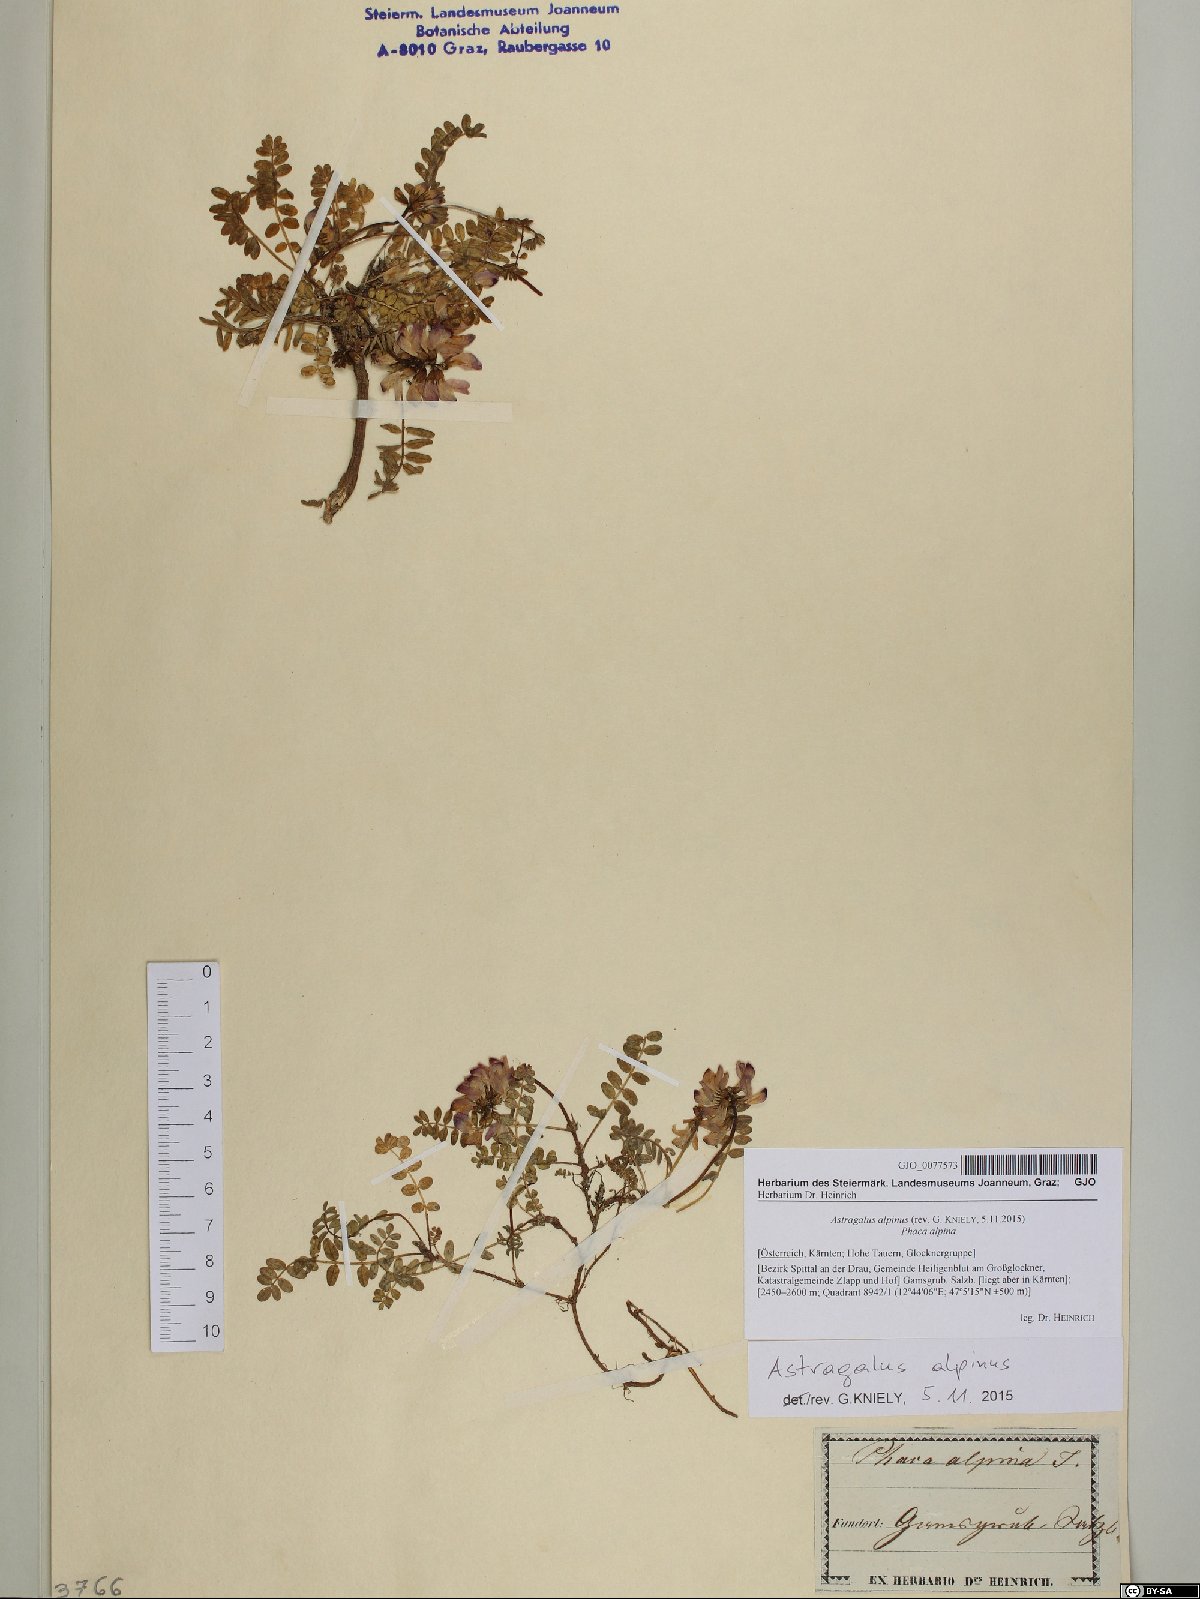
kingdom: Plantae
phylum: Tracheophyta
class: Magnoliopsida
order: Fabales
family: Fabaceae
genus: Astragalus
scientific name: Astragalus alpinus
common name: Alpine milk-vetch
